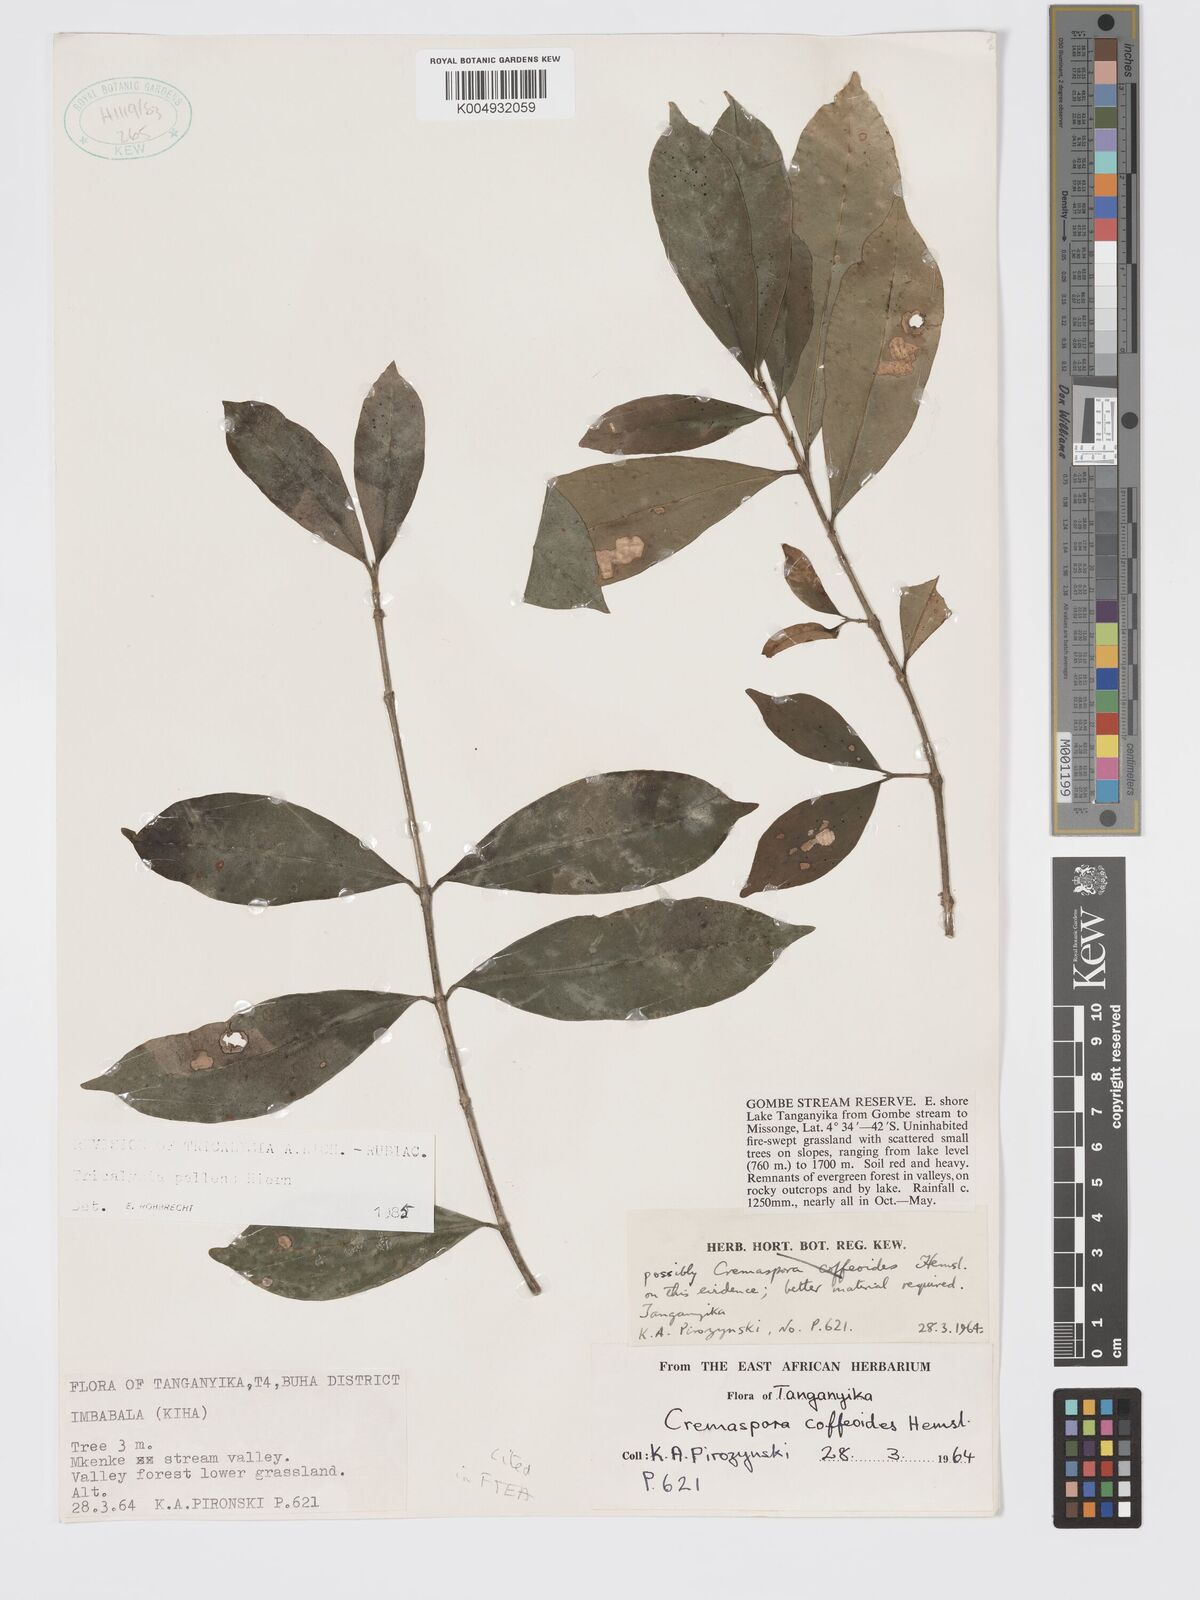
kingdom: Plantae
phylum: Tracheophyta
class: Magnoliopsida
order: Gentianales
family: Rubiaceae
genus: Tricalysia
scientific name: Tricalysia pallens
